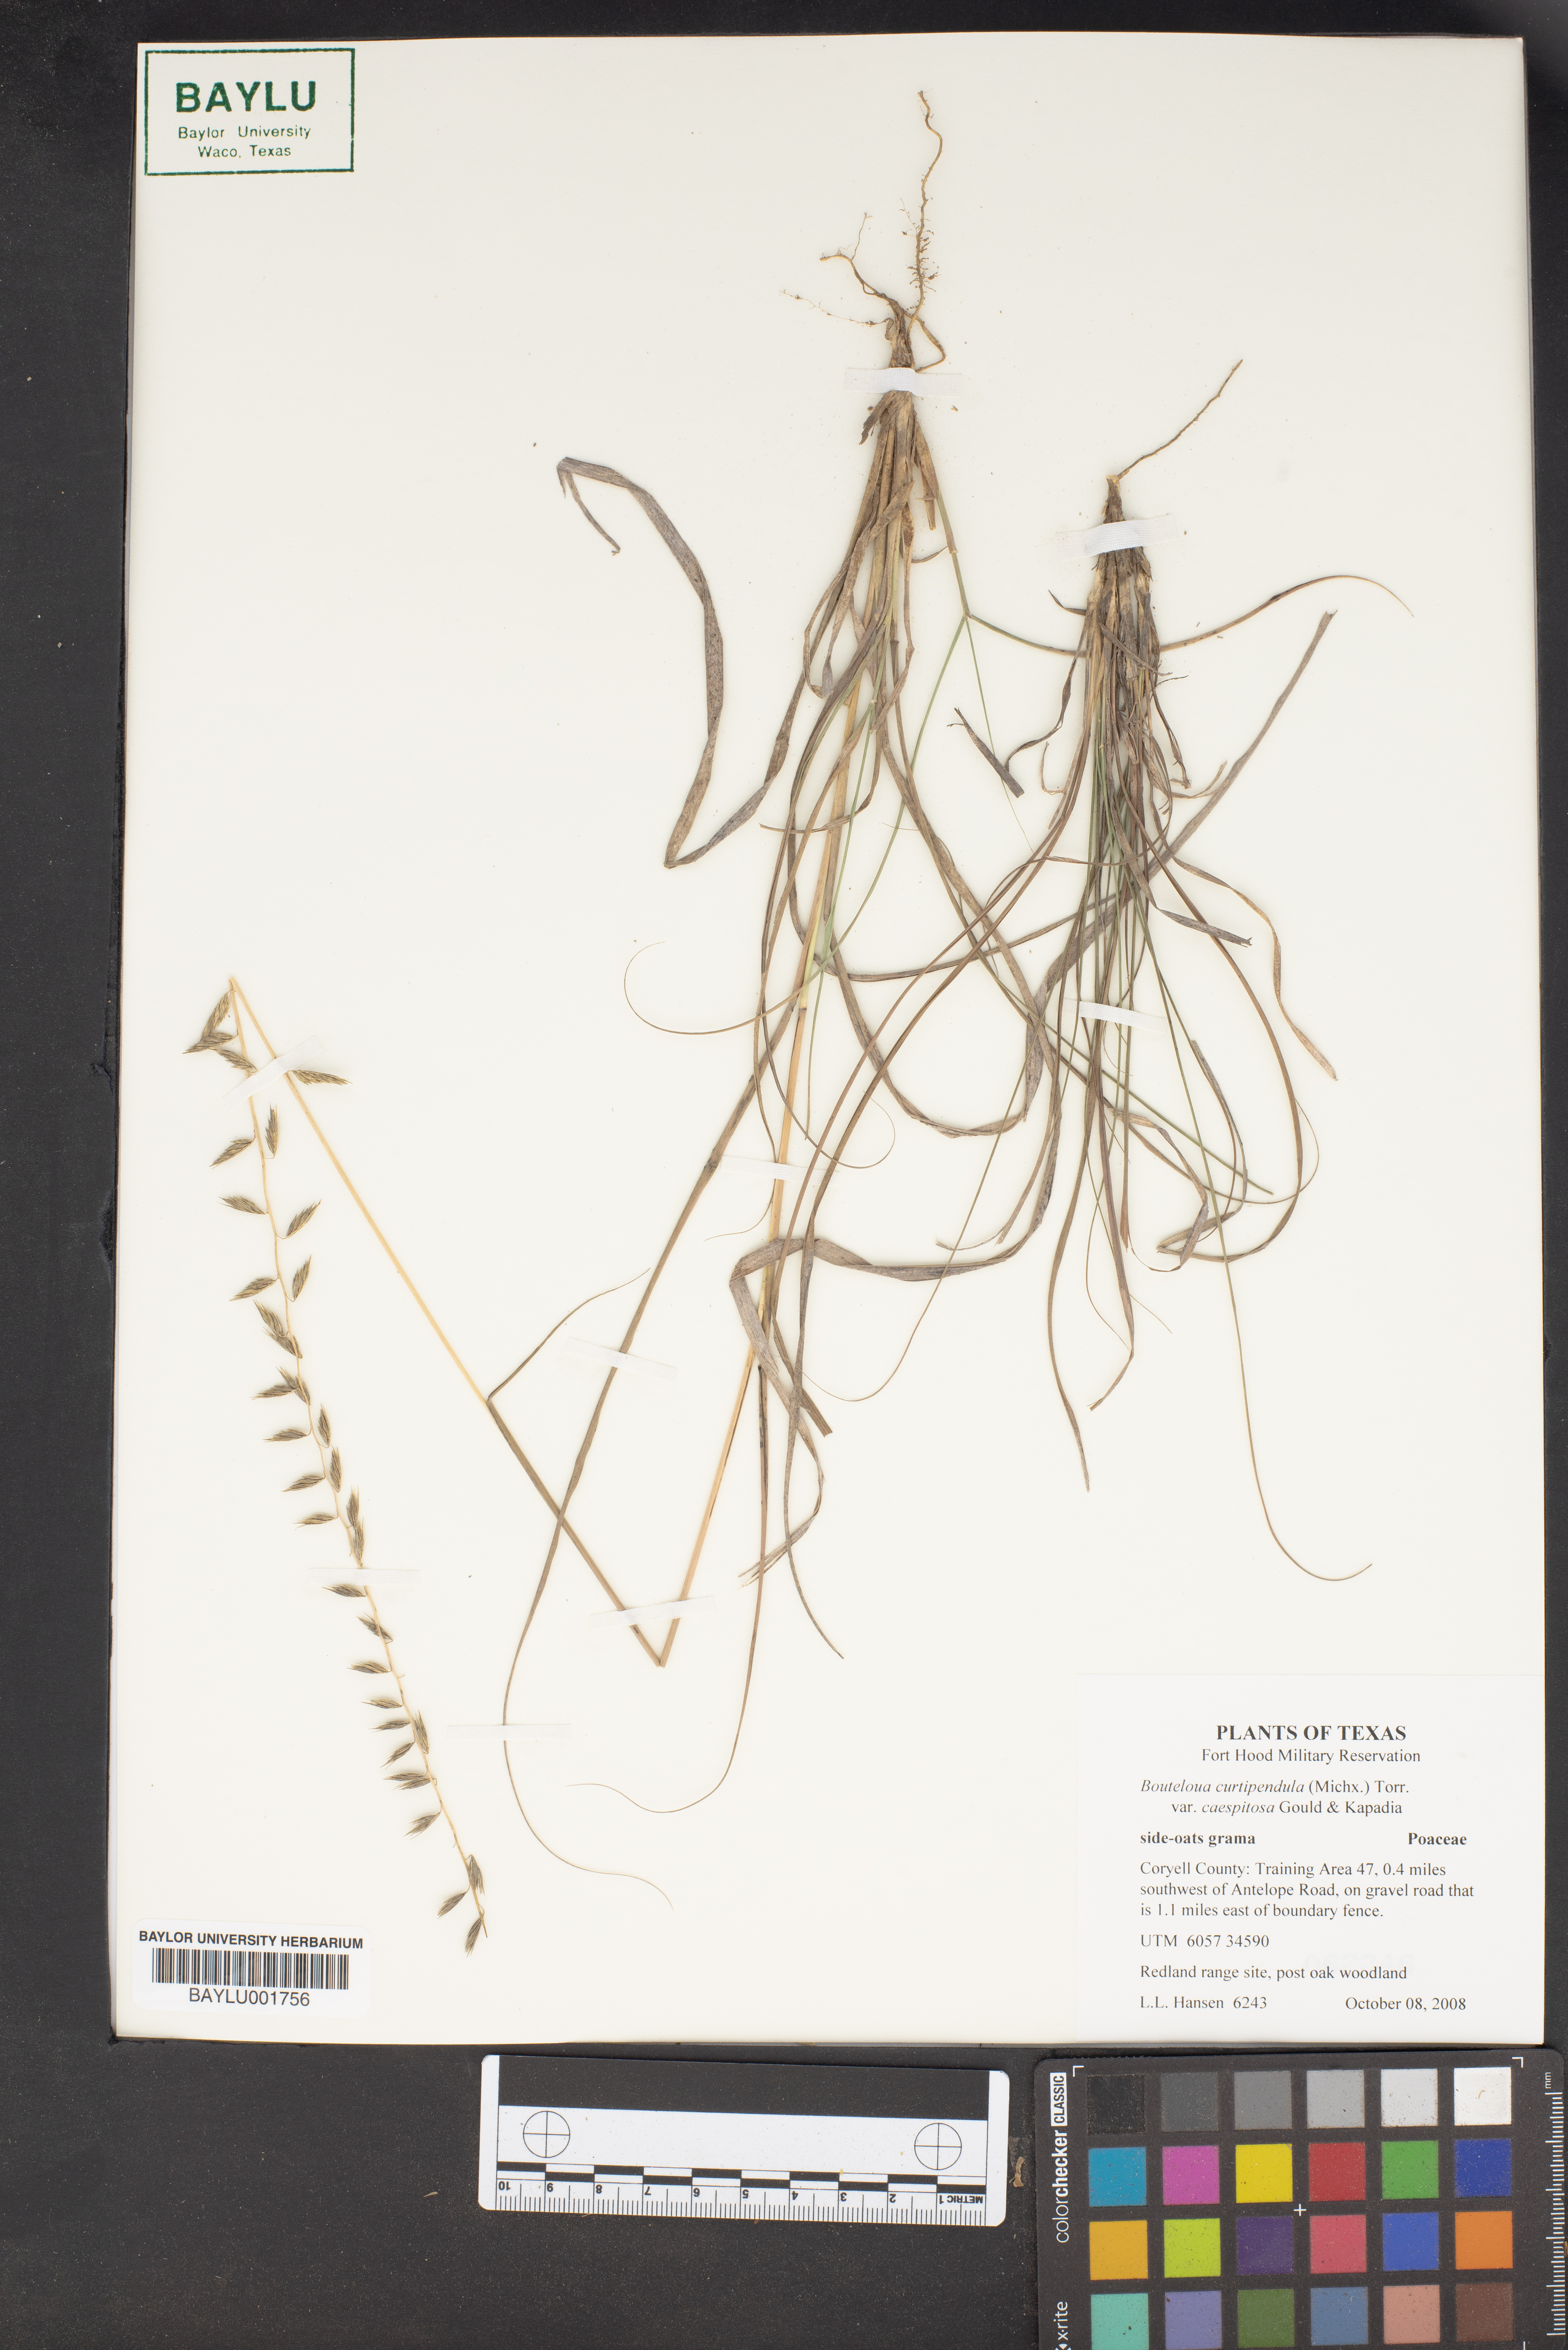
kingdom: Plantae
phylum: Tracheophyta
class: Liliopsida
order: Poales
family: Poaceae
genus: Bouteloua
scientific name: Bouteloua curtipendula
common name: Side-oats grama
